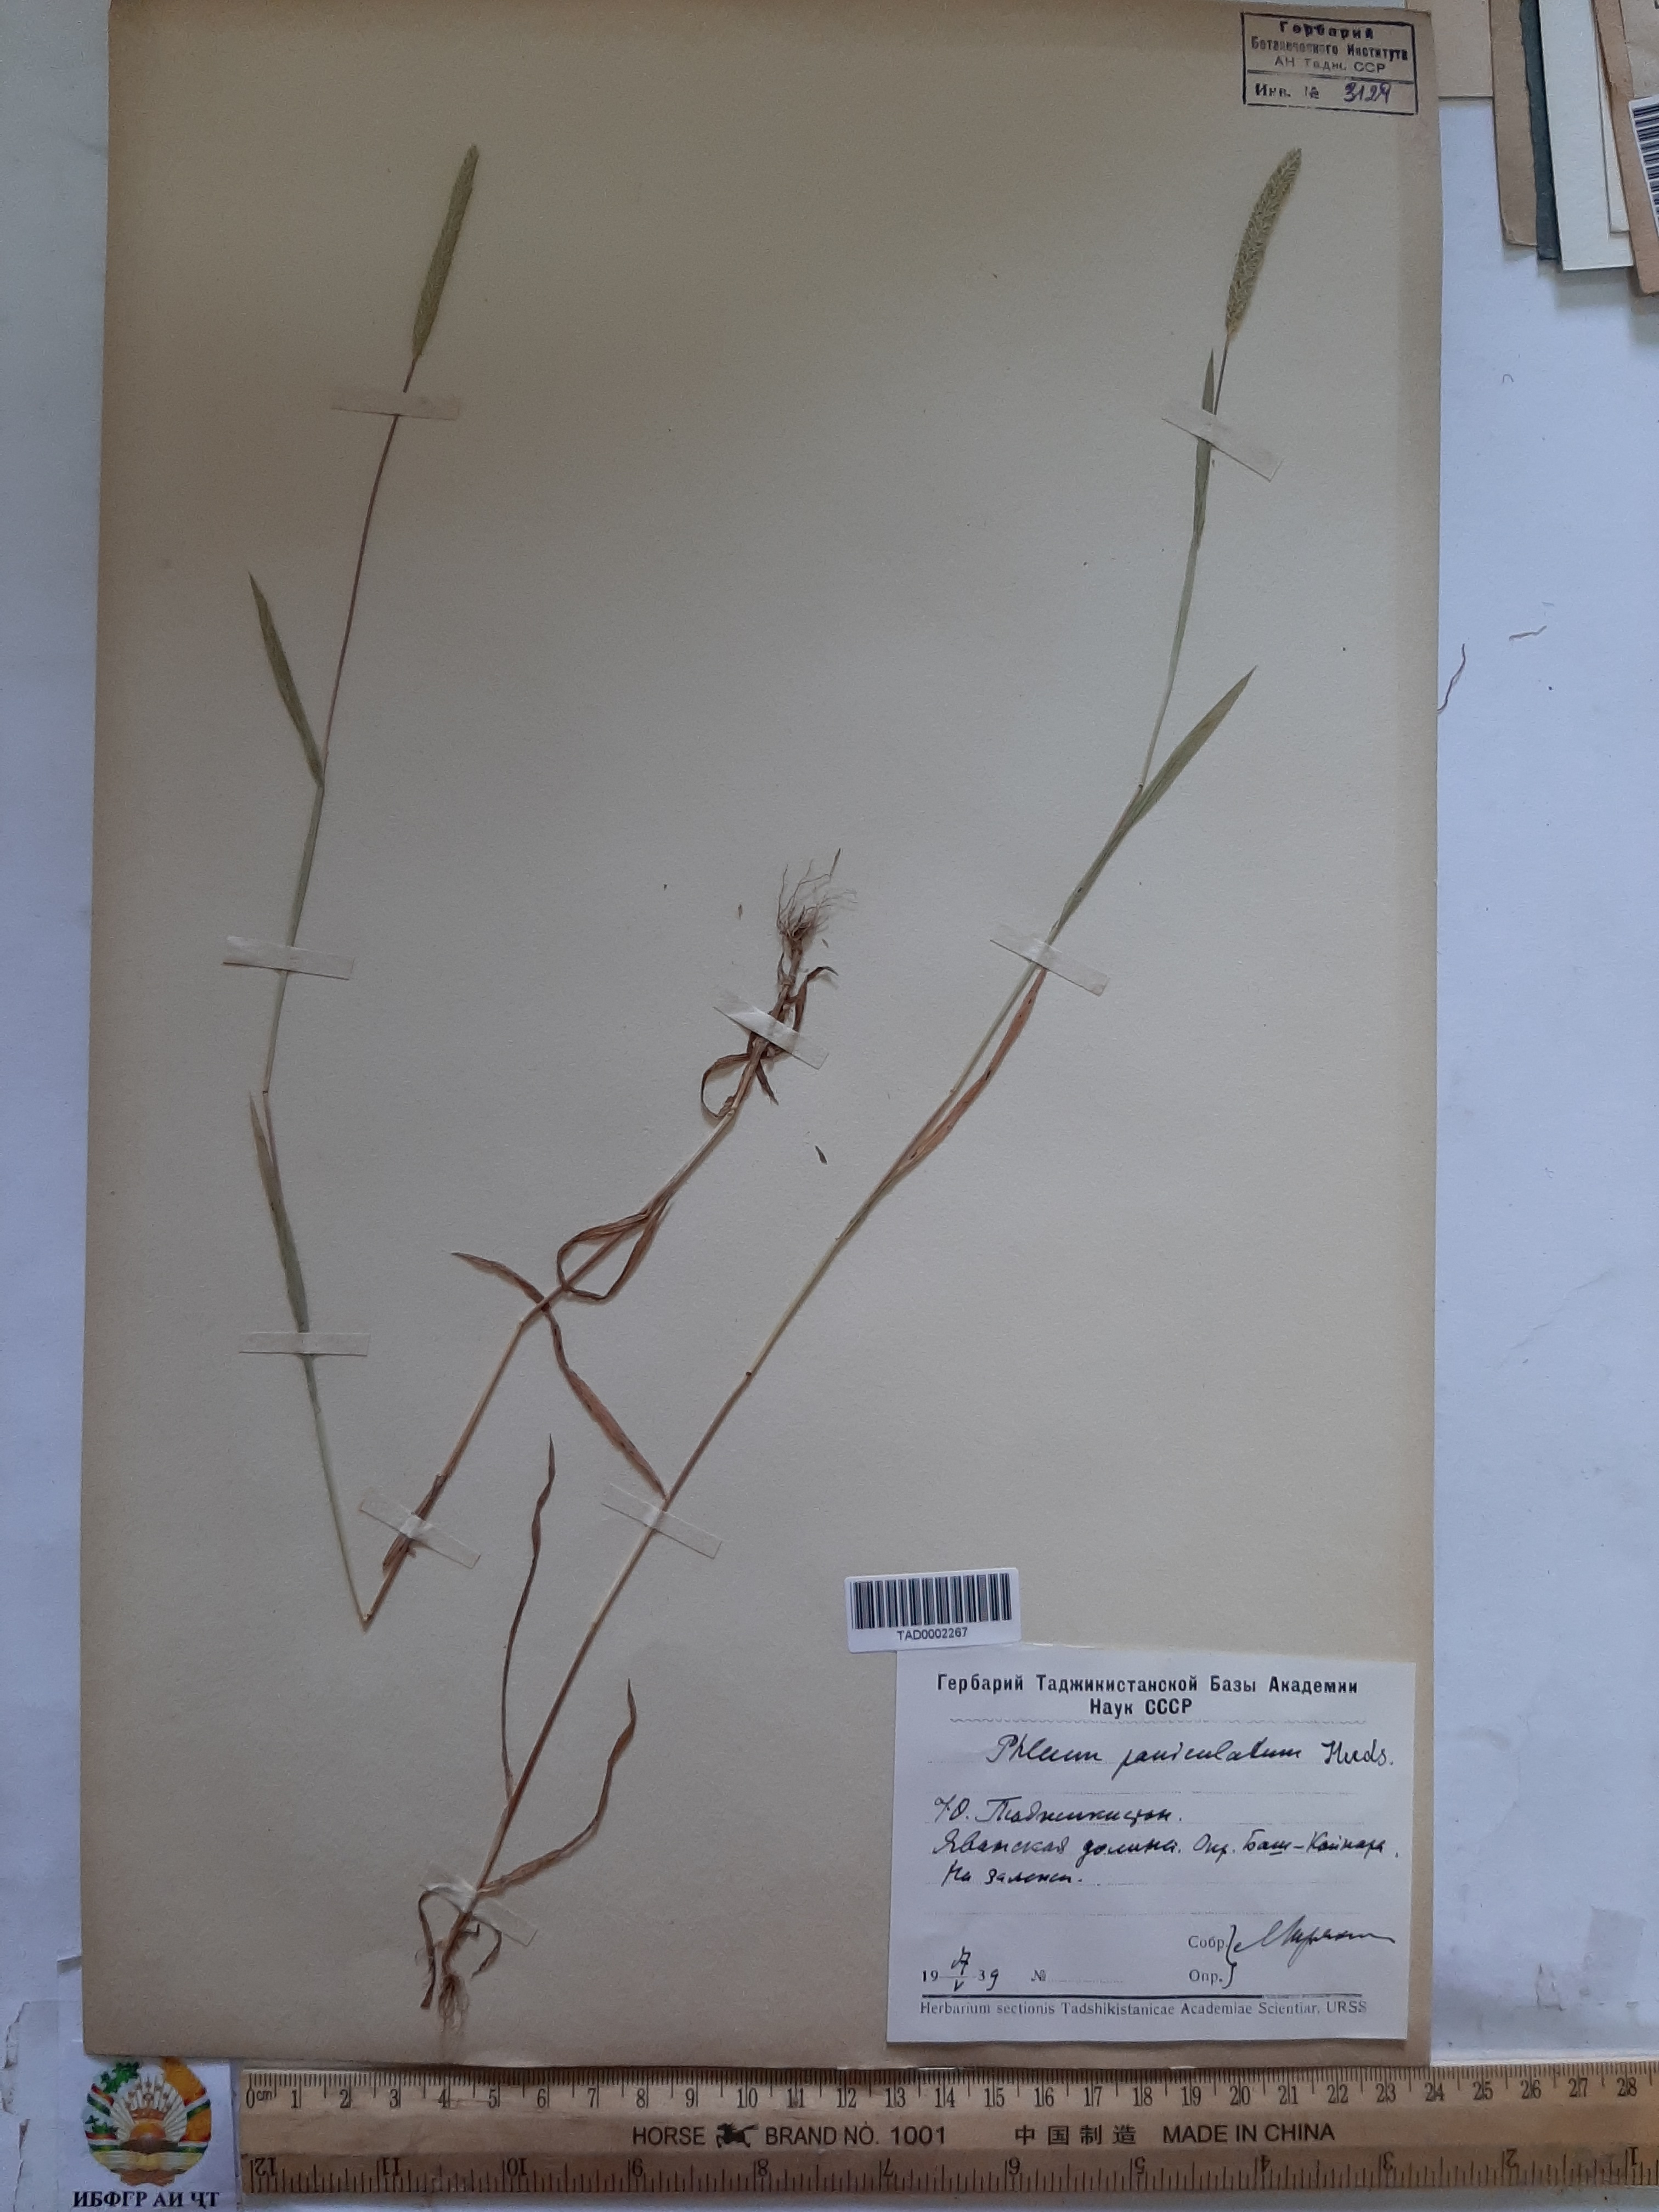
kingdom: Plantae
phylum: Tracheophyta
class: Liliopsida
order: Poales
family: Poaceae
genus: Phleum
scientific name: Phleum paniculatum
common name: British timothy
